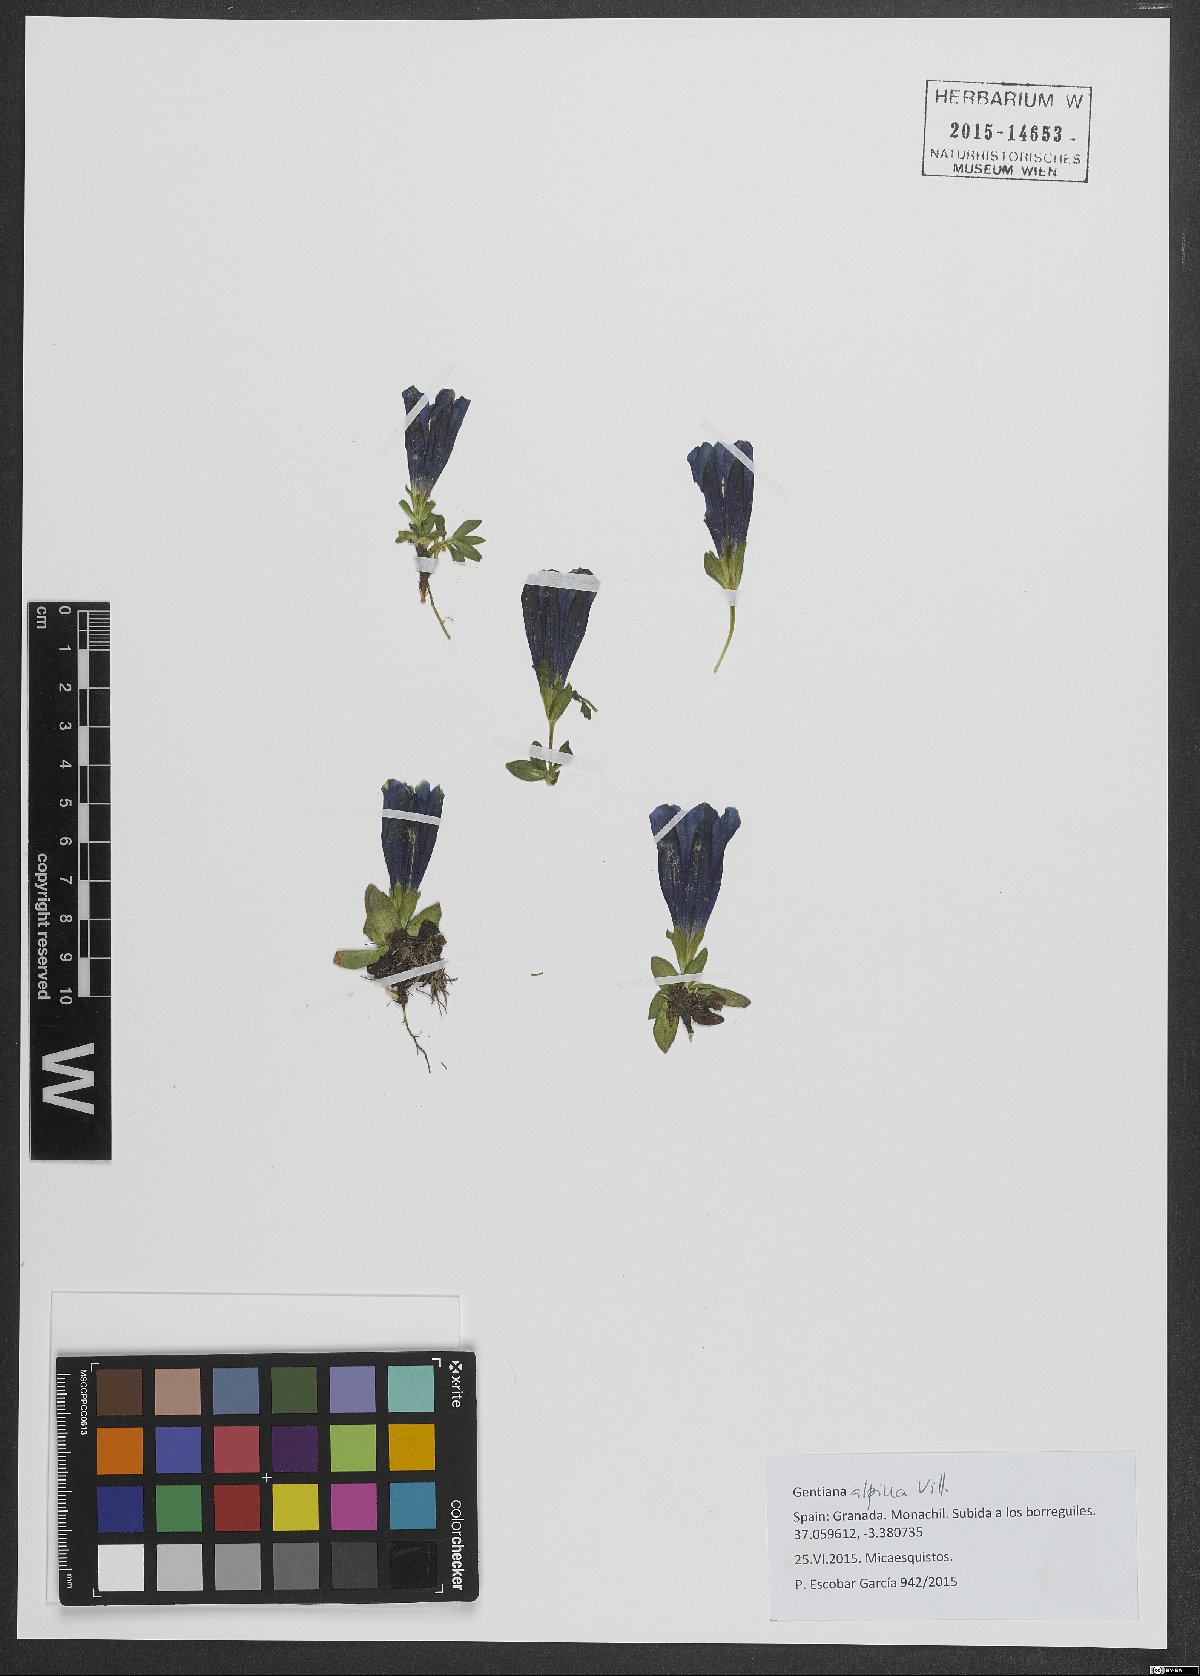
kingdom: Plantae
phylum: Tracheophyta
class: Magnoliopsida
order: Gentianales
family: Gentianaceae
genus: Gentiana
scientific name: Gentiana alpina
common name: Southern gentian
